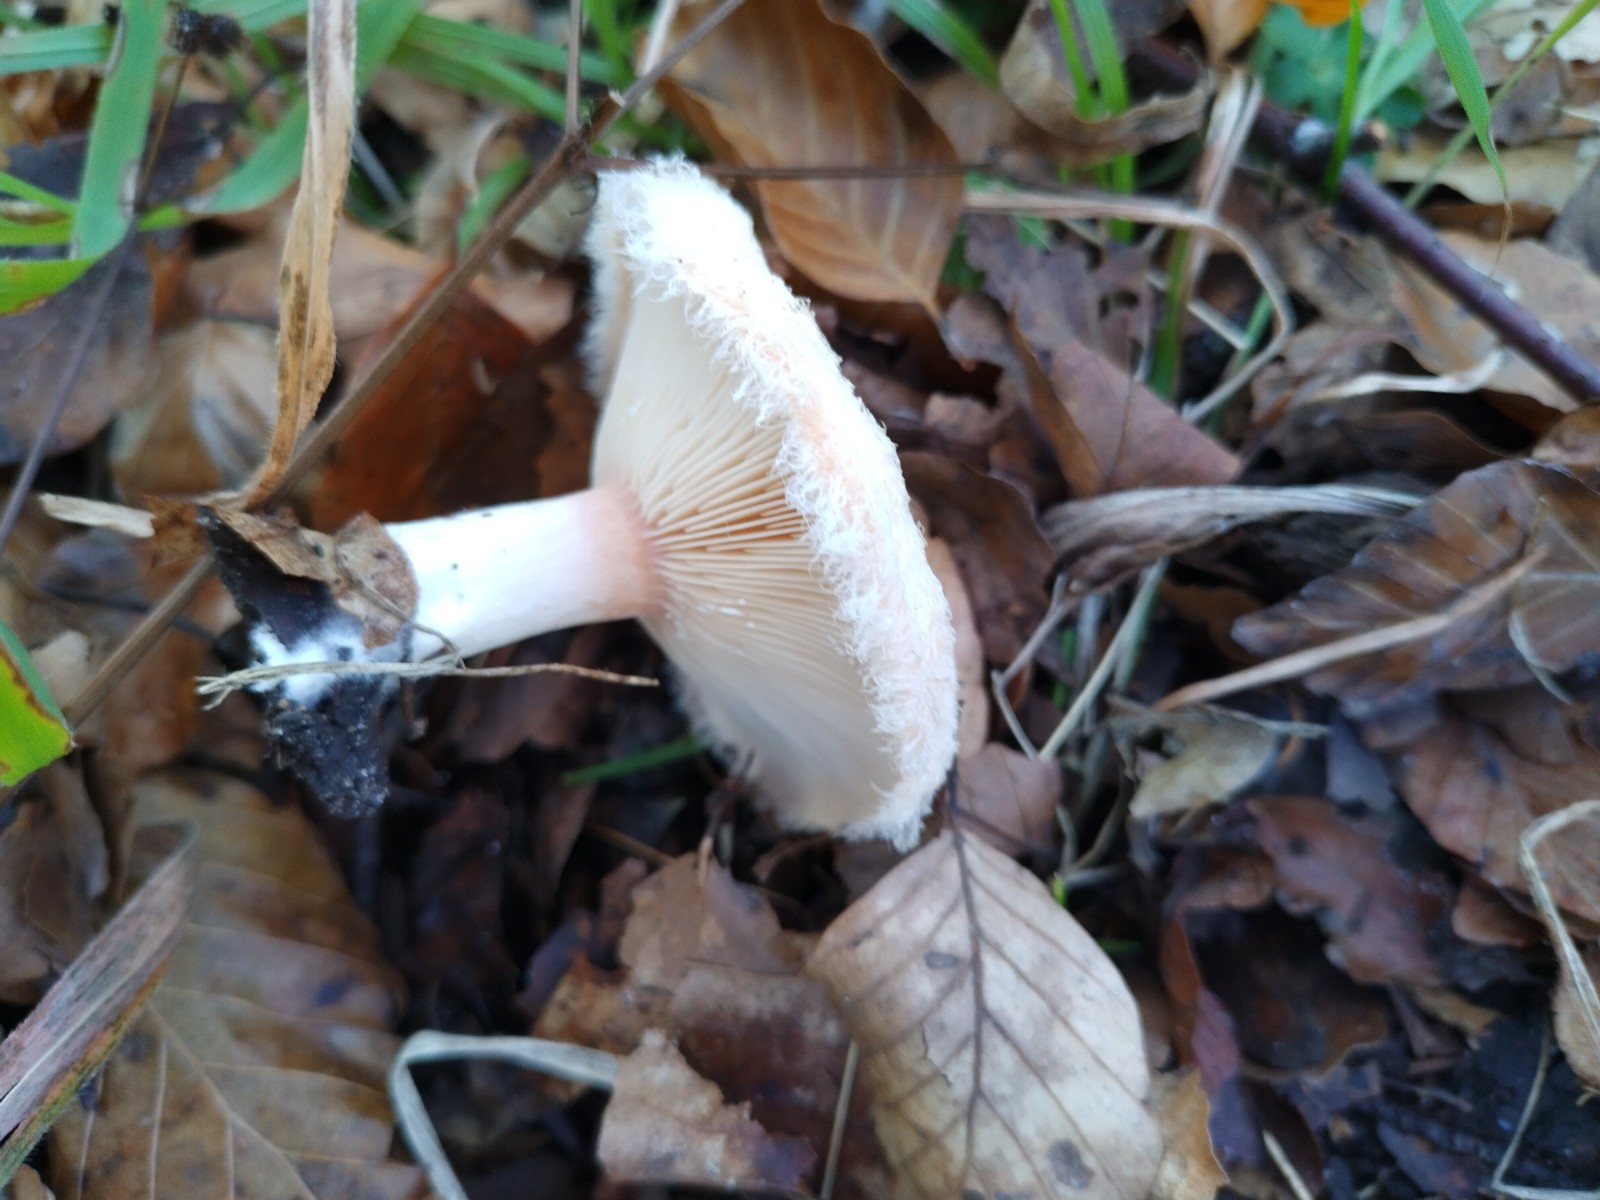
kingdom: Fungi
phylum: Basidiomycota
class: Agaricomycetes
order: Russulales
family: Russulaceae
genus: Lactarius
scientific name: Lactarius pubescens
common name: dunet mælkehat
